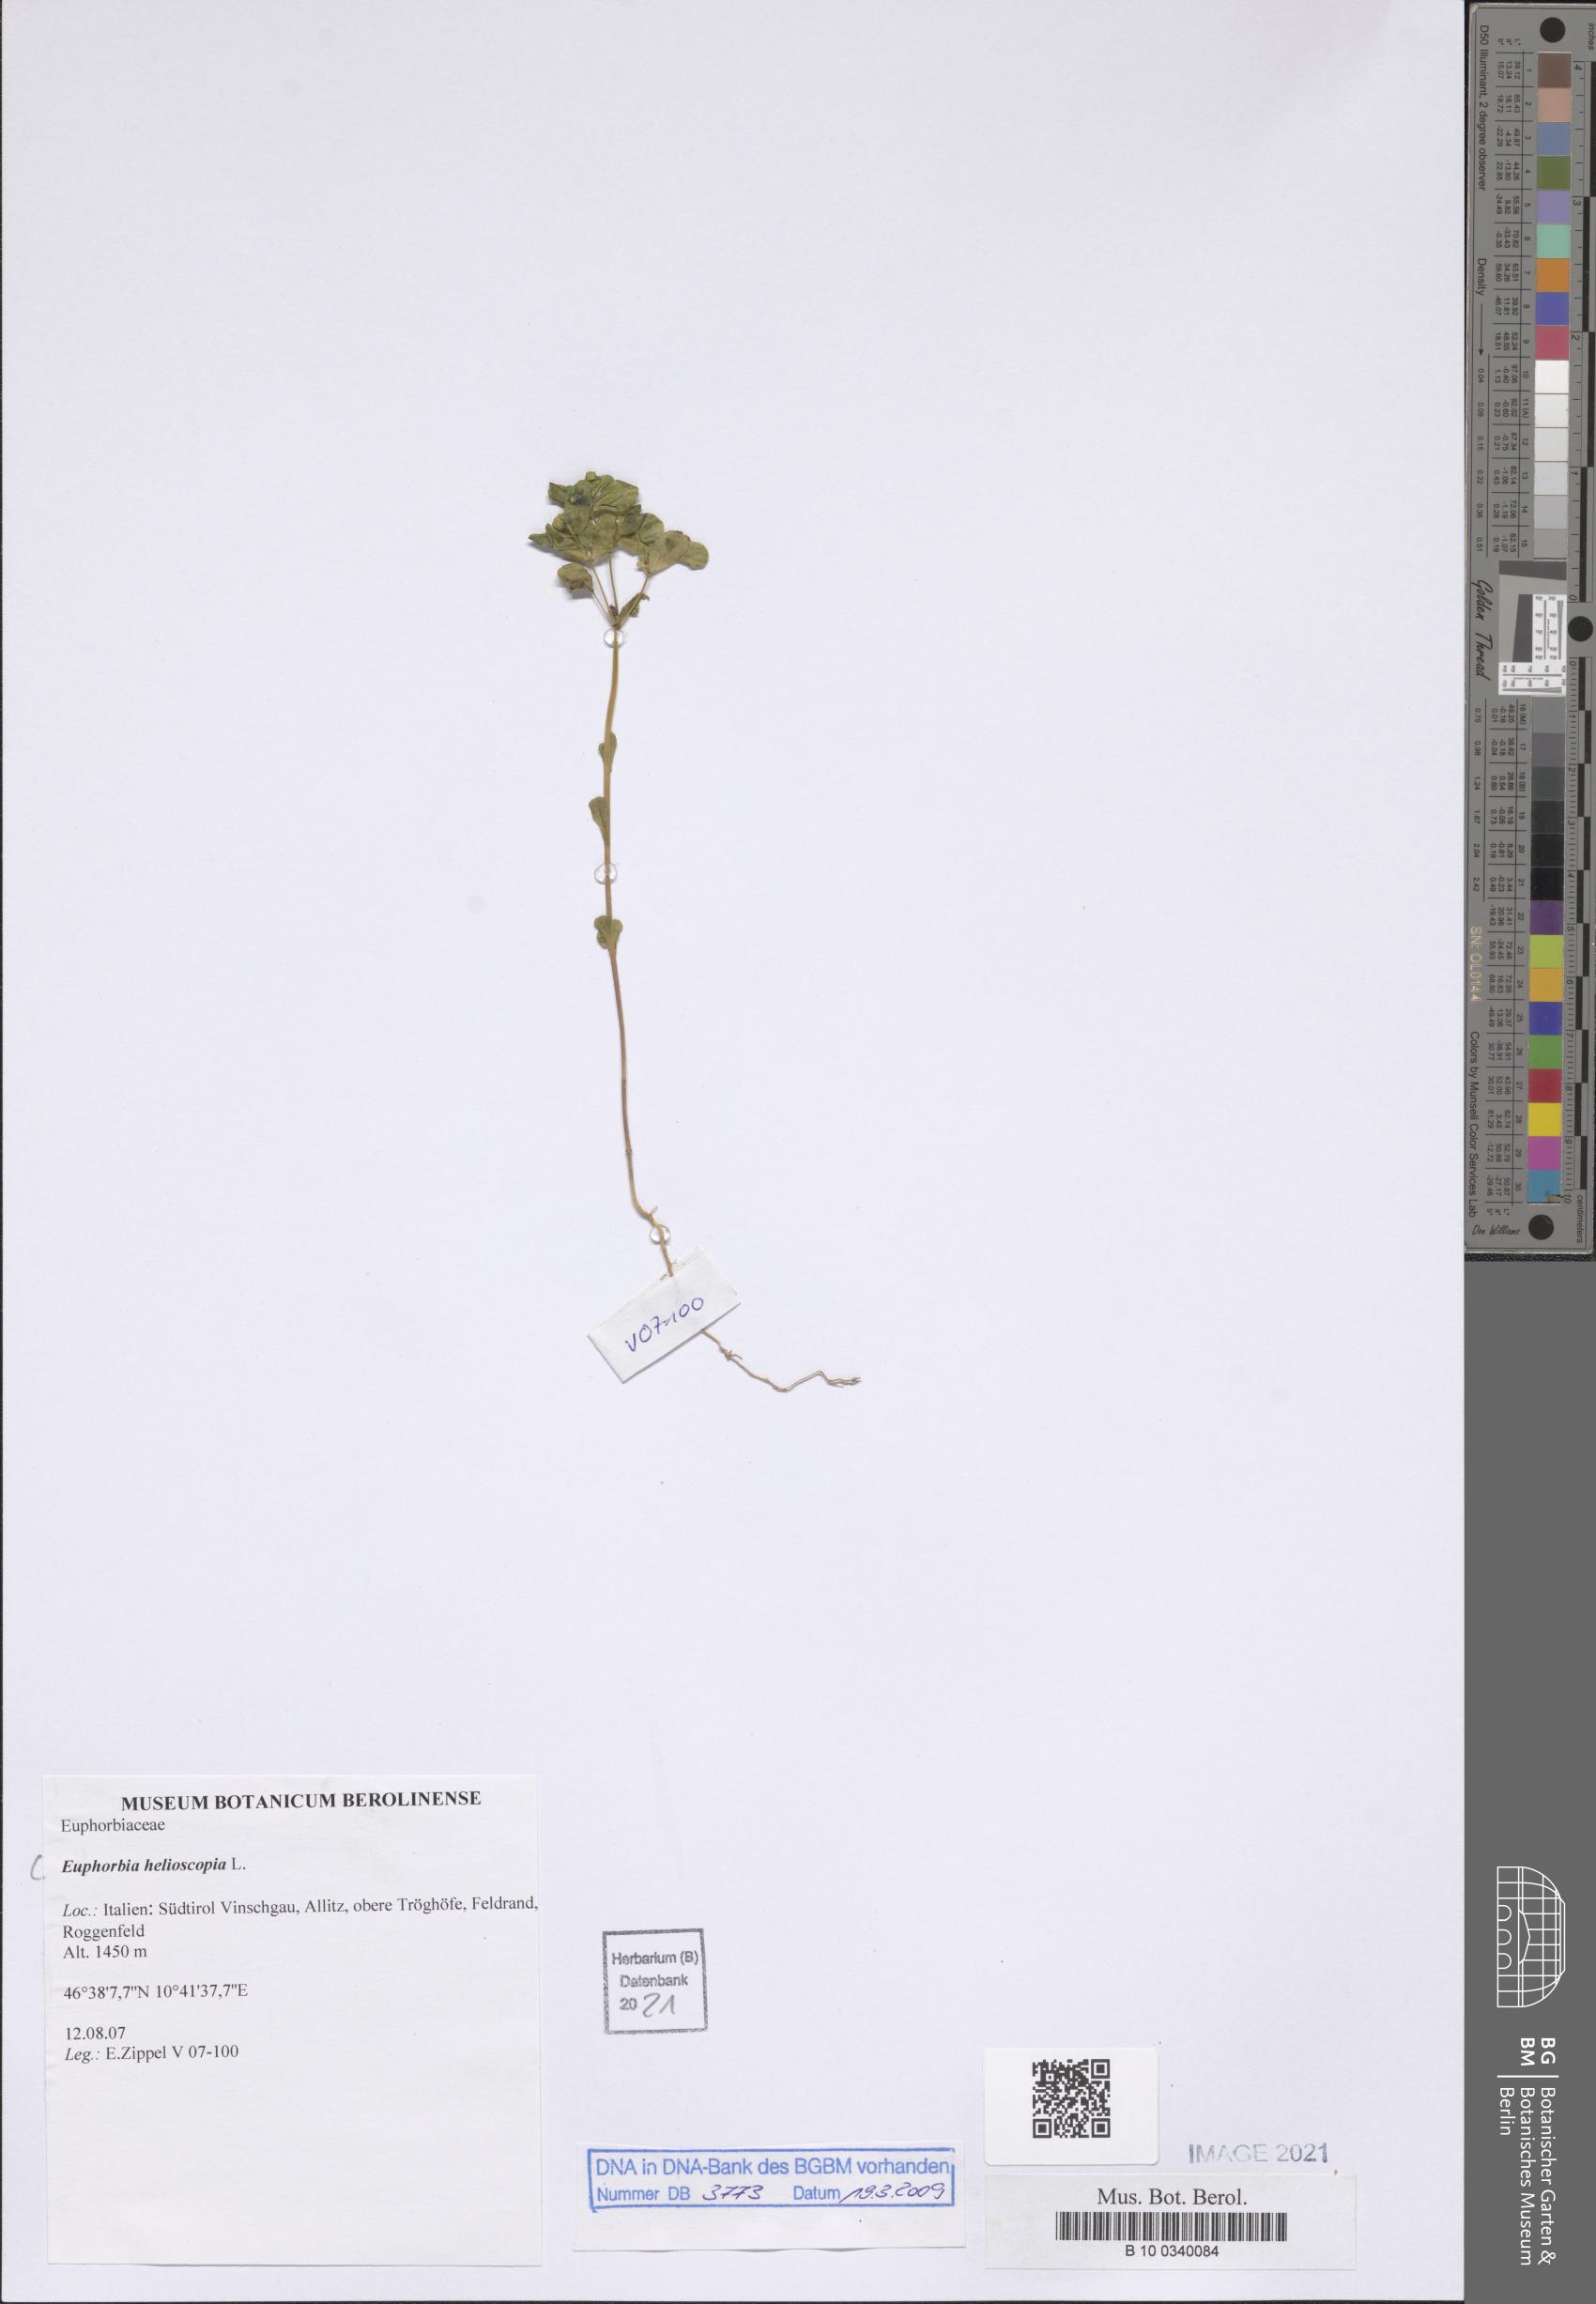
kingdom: Plantae
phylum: Tracheophyta
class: Magnoliopsida
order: Malpighiales
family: Euphorbiaceae
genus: Euphorbia
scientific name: Euphorbia helioscopia
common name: Sun spurge
